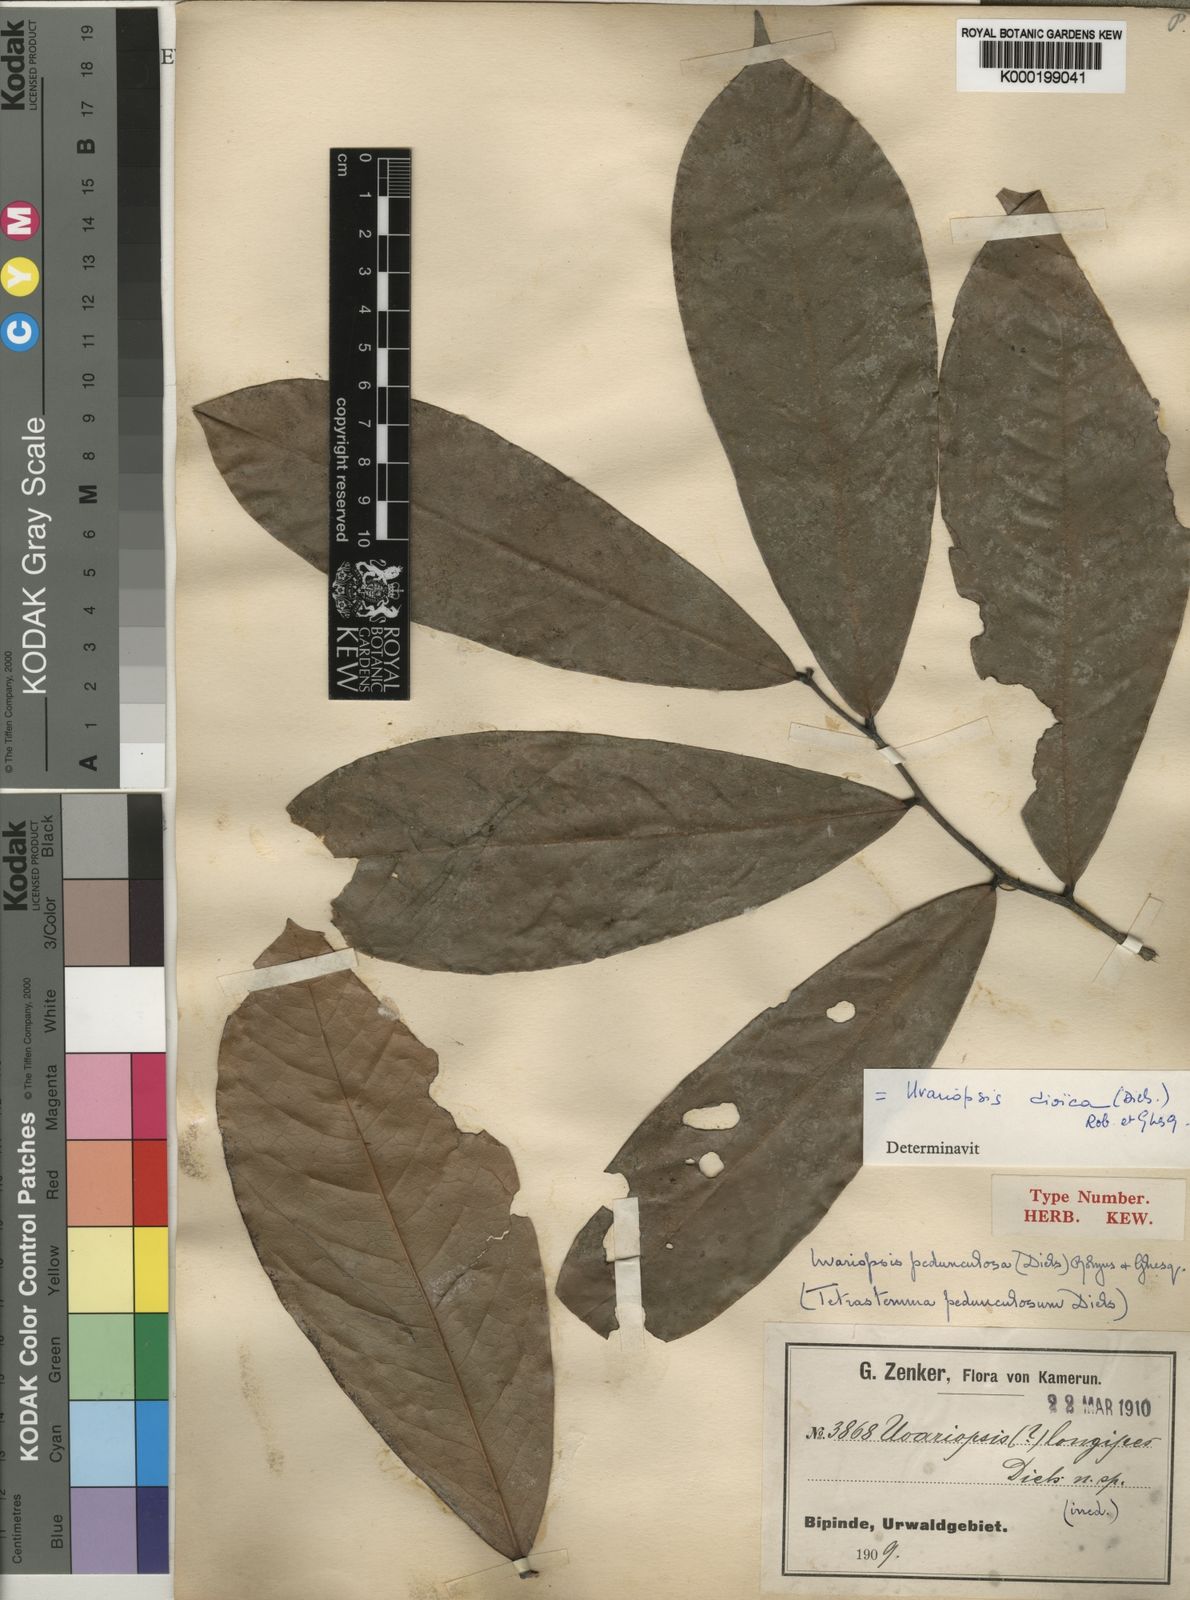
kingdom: Plantae
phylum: Tracheophyta
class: Magnoliopsida
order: Magnoliales
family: Annonaceae
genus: Uvariopsis
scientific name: Uvariopsis dioica
